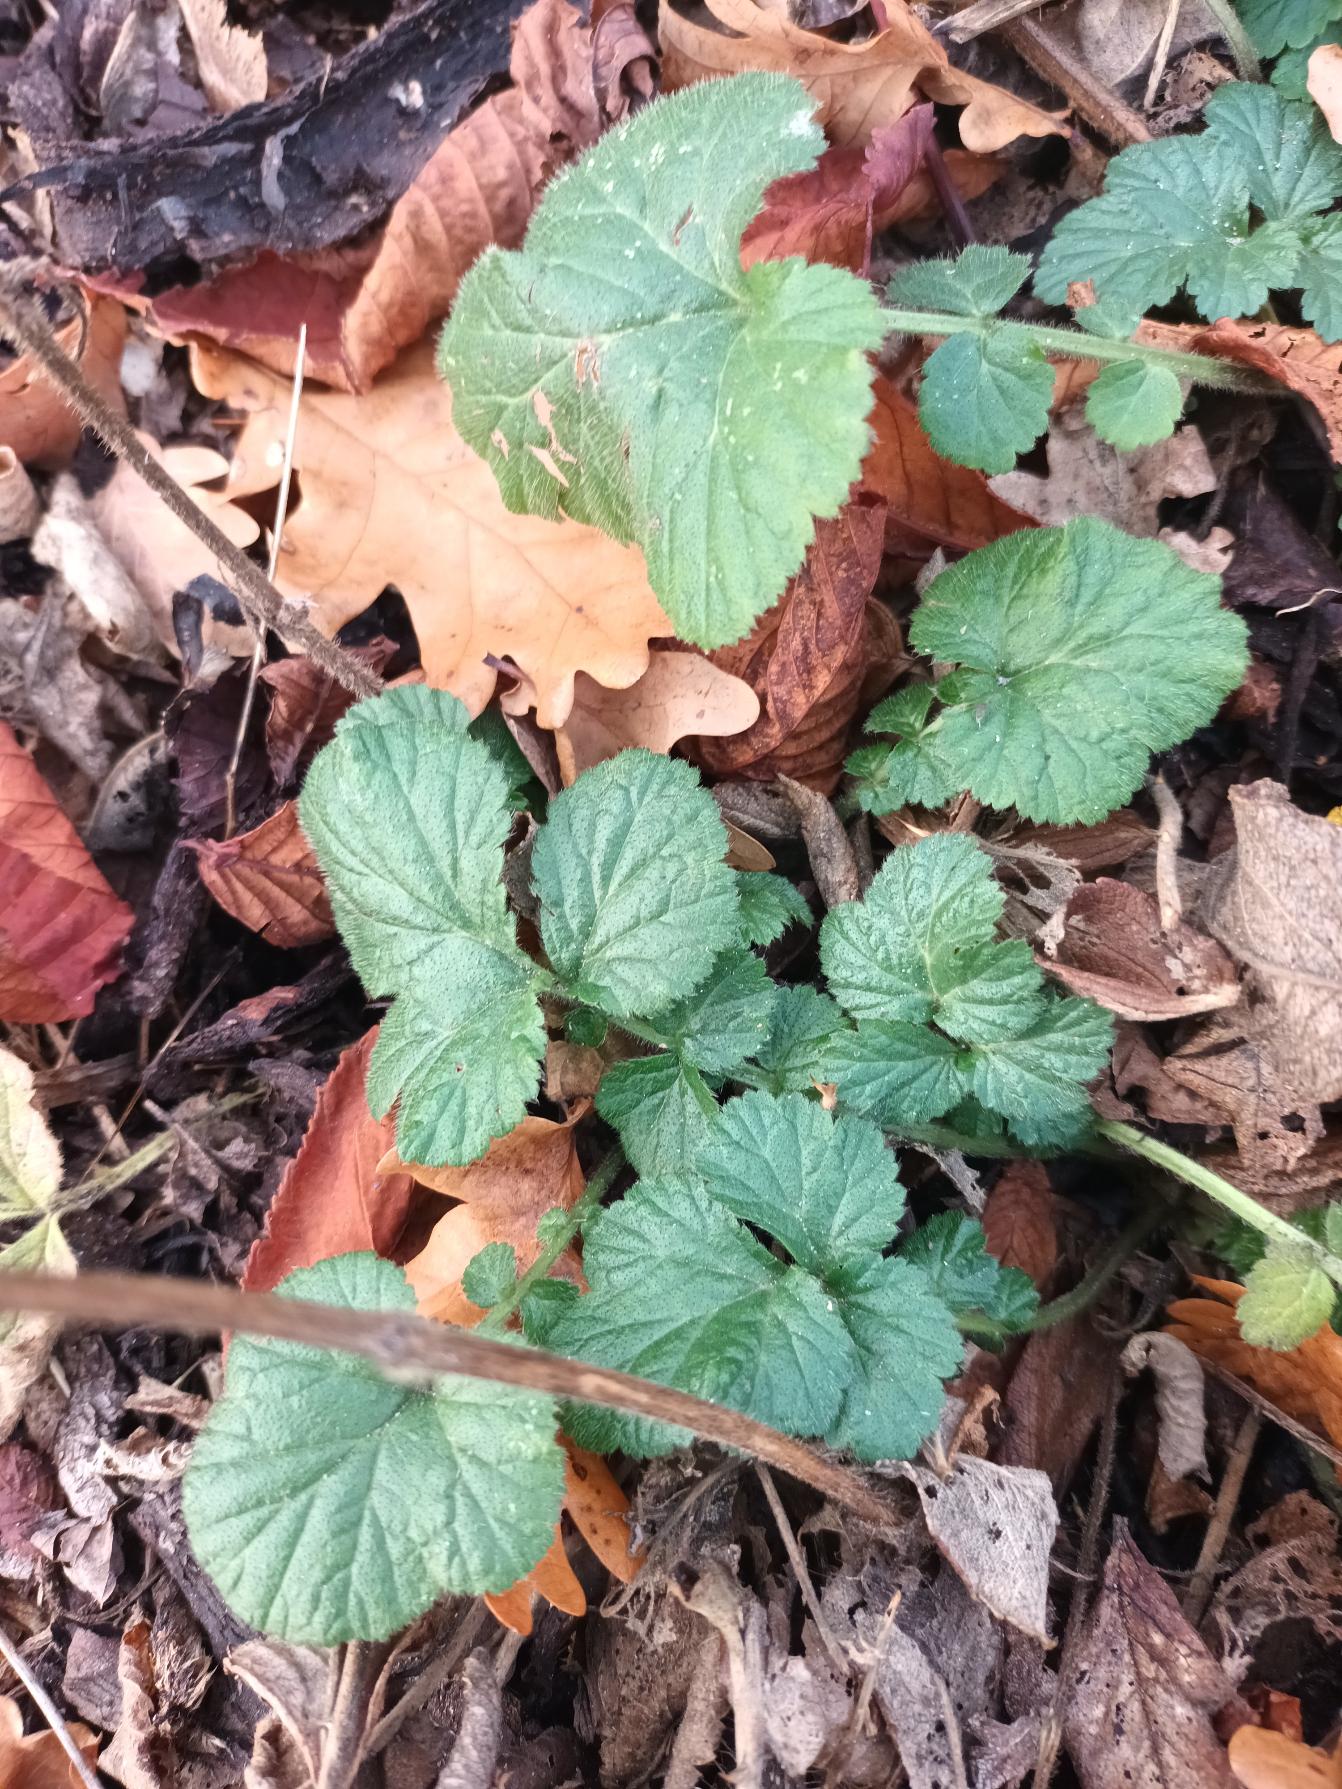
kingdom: Plantae
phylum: Tracheophyta
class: Magnoliopsida
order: Rosales
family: Rosaceae
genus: Geum
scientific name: Geum urbanum
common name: Feber-nellikerod
